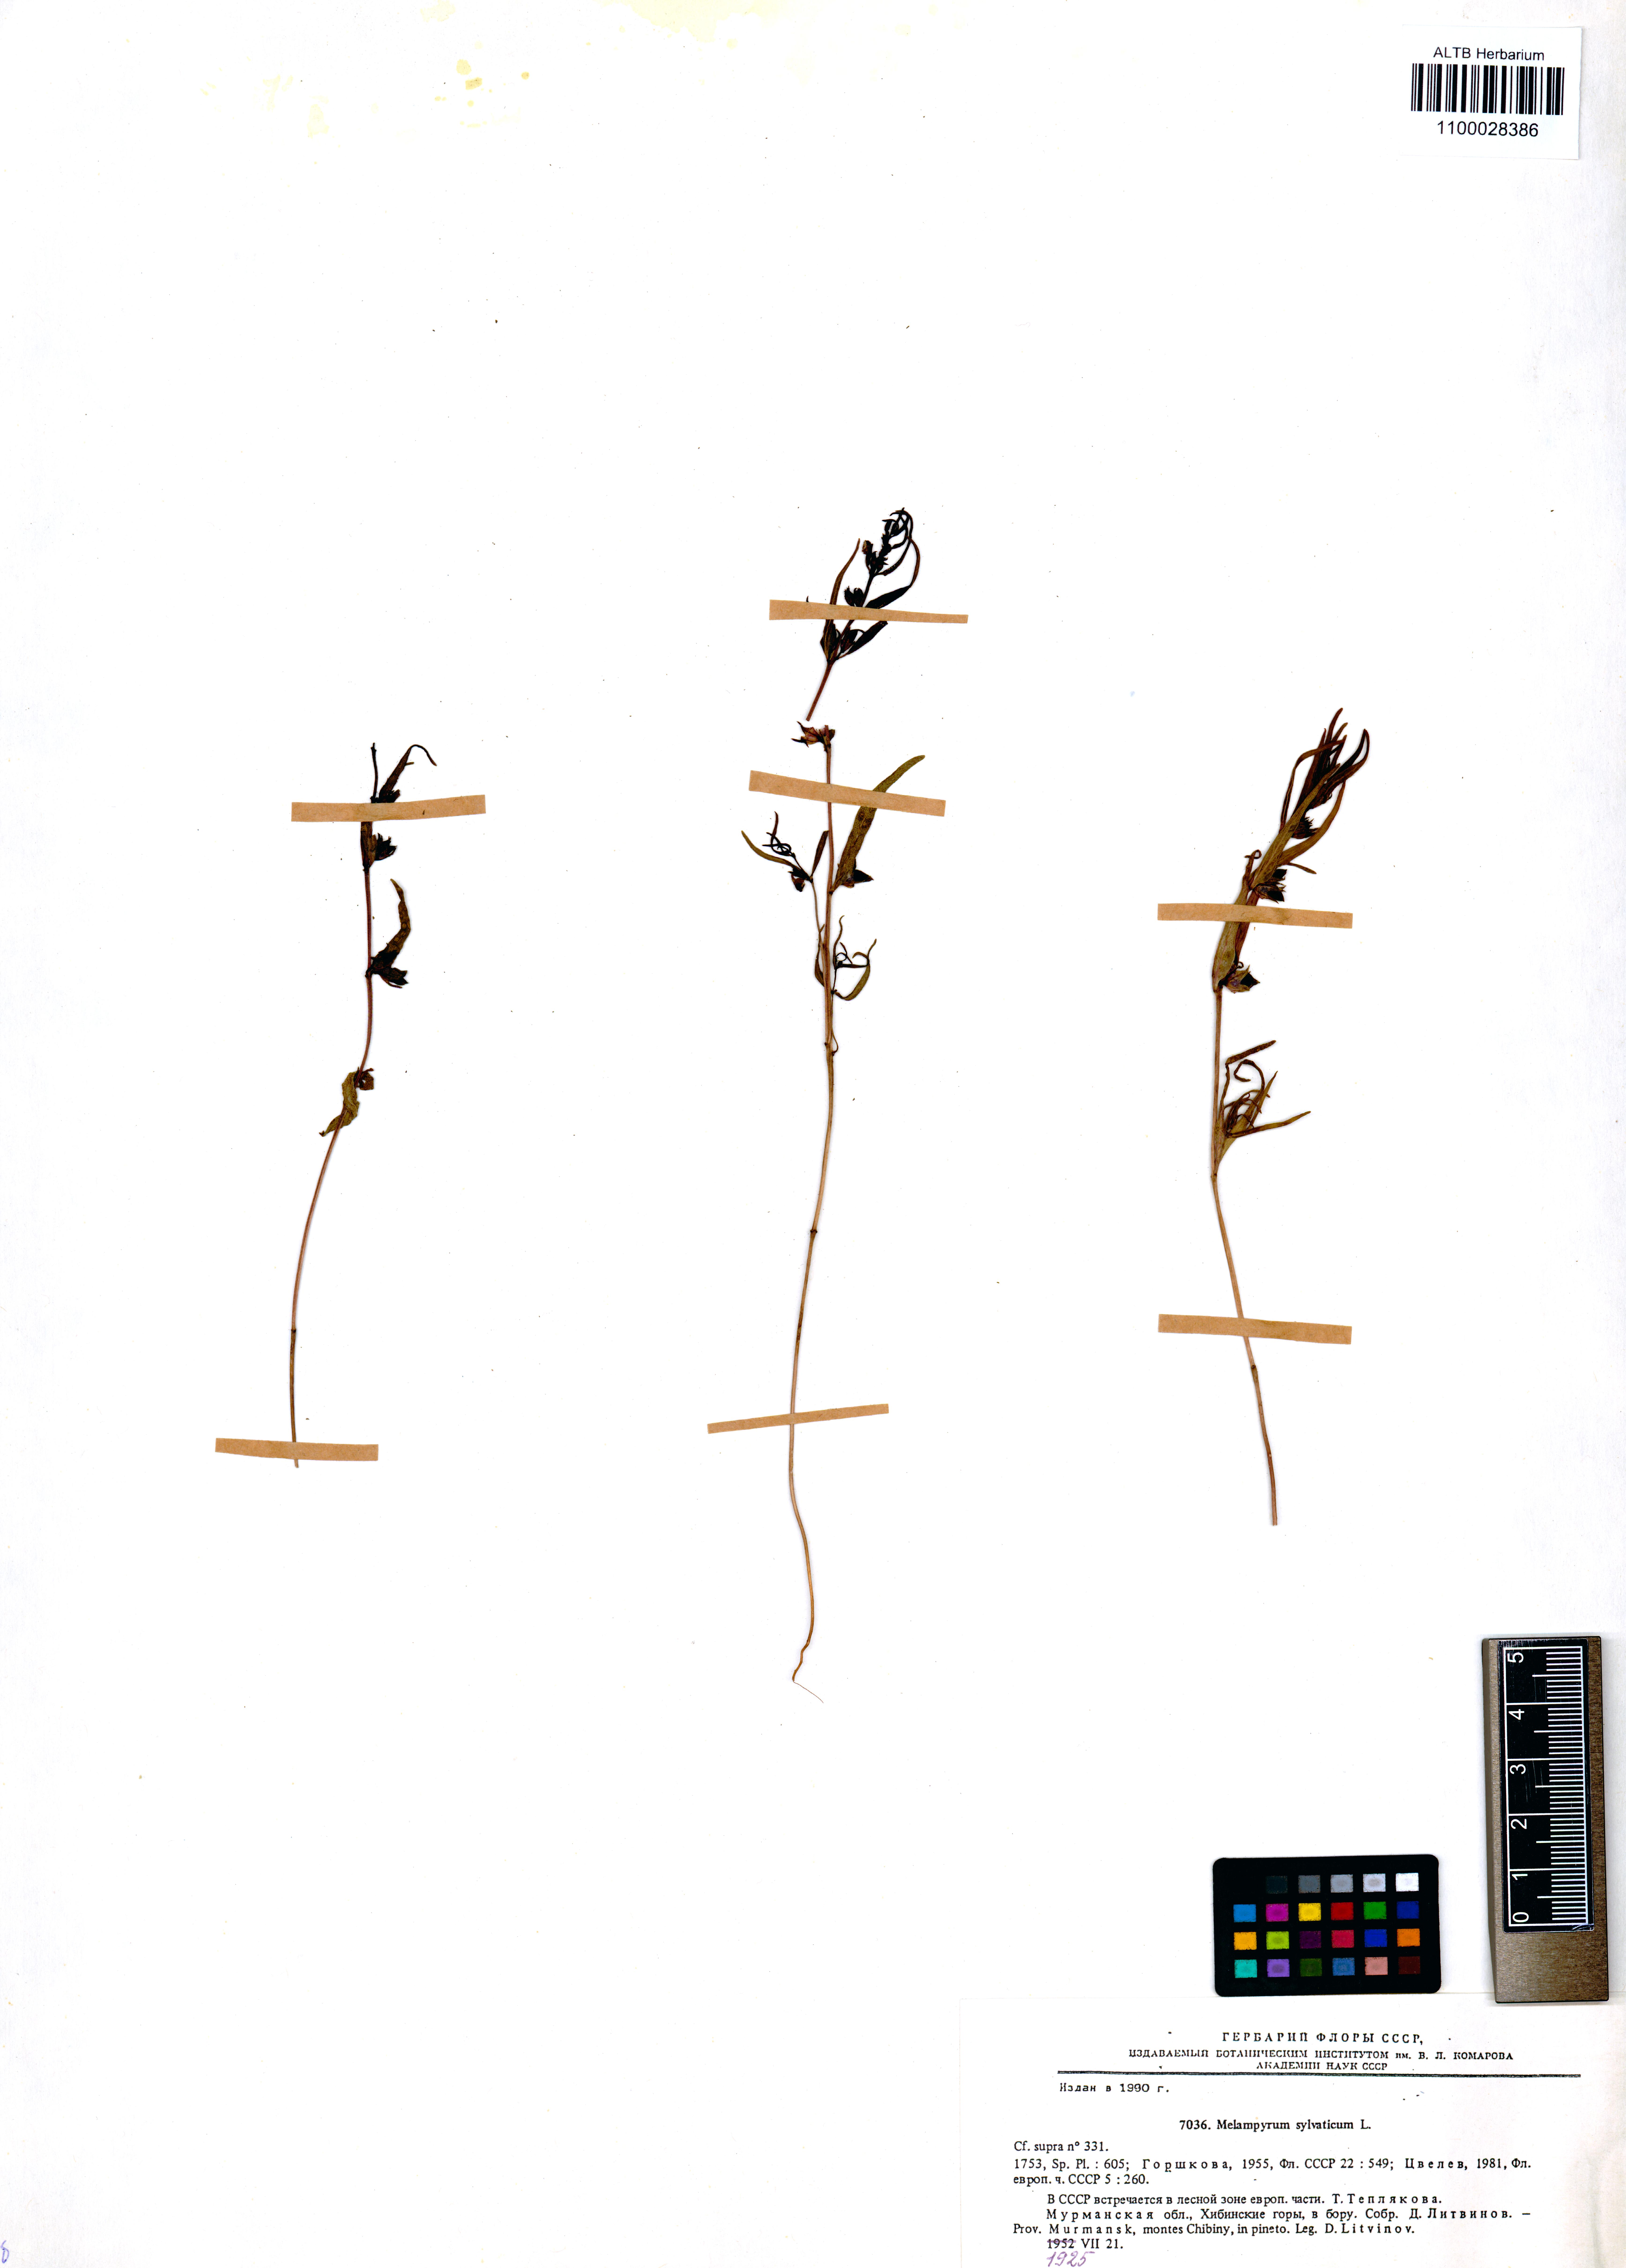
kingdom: Plantae
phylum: Tracheophyta
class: Magnoliopsida
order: Lamiales
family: Orobanchaceae
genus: Melampyrum
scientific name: Melampyrum sylvaticum
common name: Small cow-wheat
